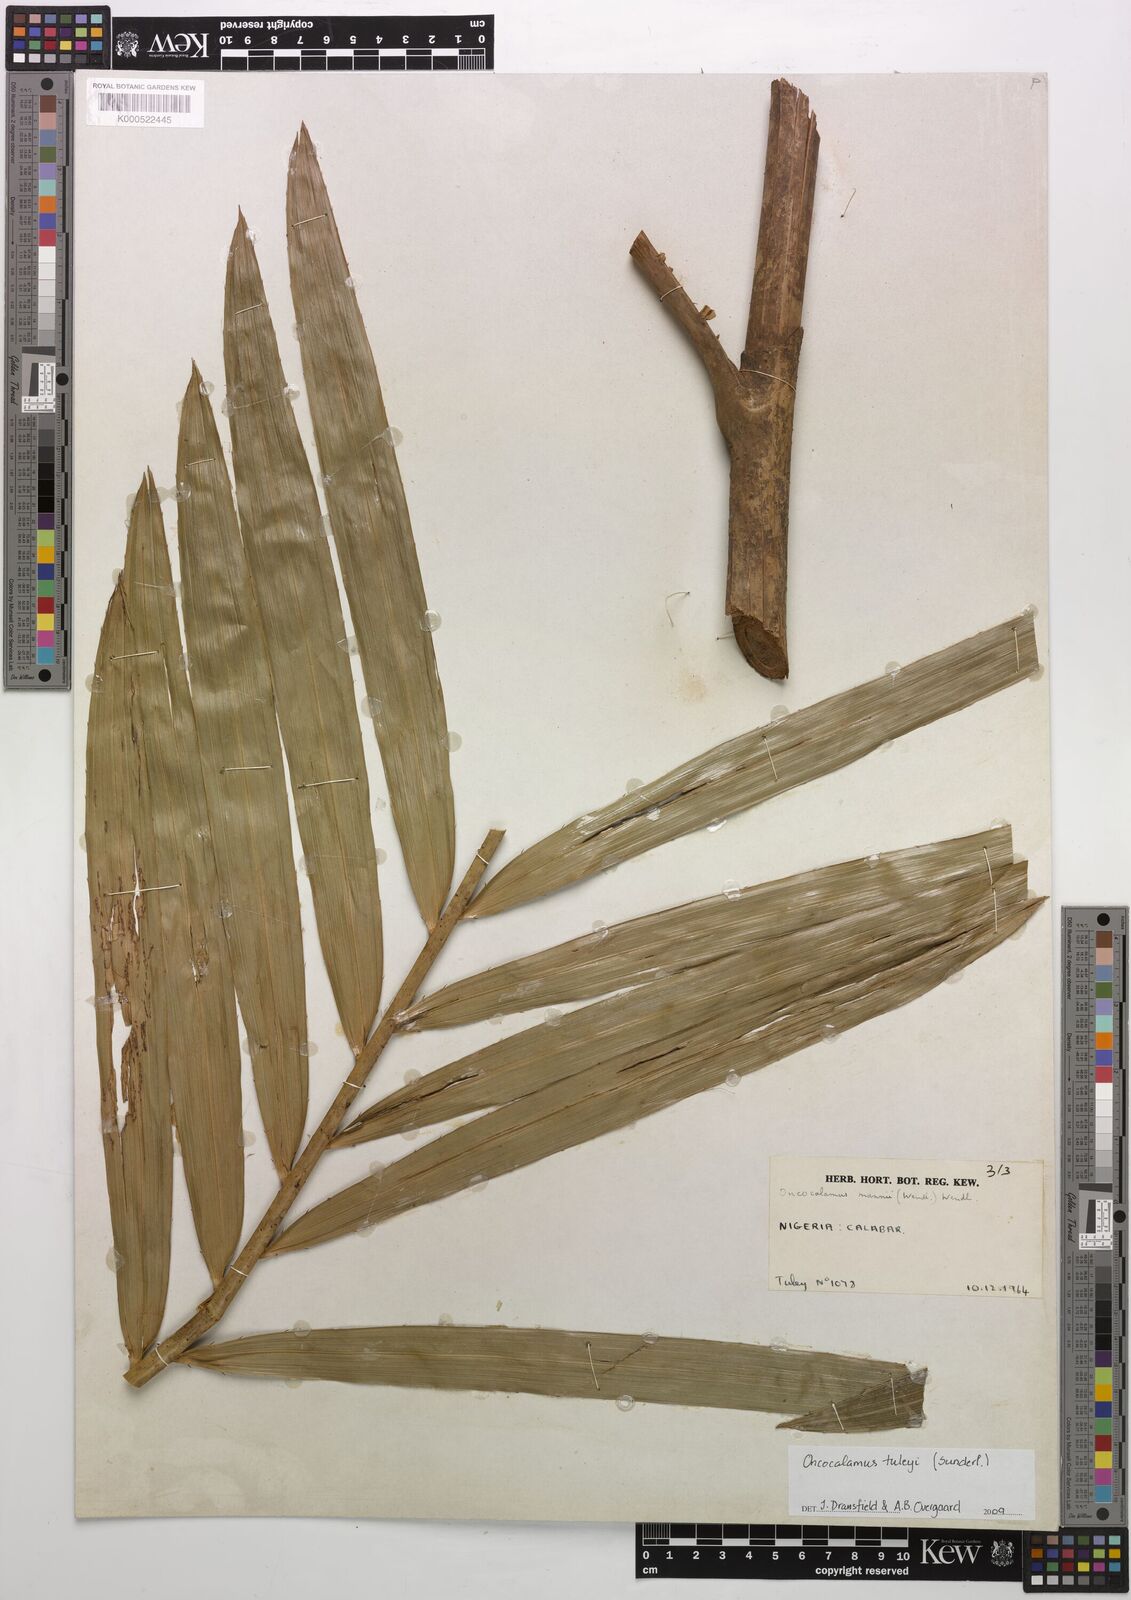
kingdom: Plantae
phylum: Tracheophyta
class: Liliopsida
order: Arecales
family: Arecaceae
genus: Oncocalamus
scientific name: Oncocalamus mannii
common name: Rattan
